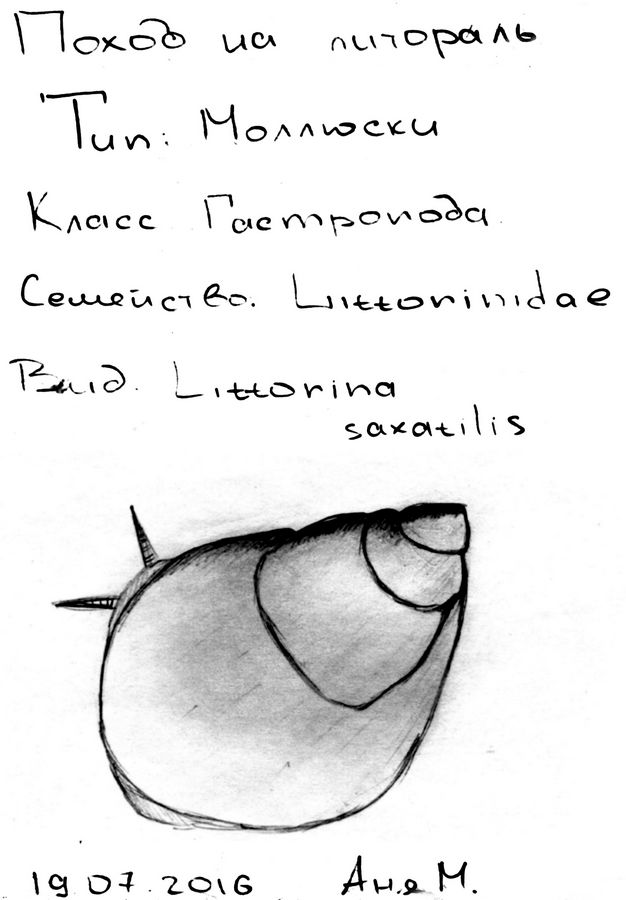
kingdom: Animalia
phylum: Mollusca
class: Gastropoda
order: Littorinimorpha
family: Littorinidae
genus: Littorina
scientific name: Littorina obtusata
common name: Flat periwinkle
